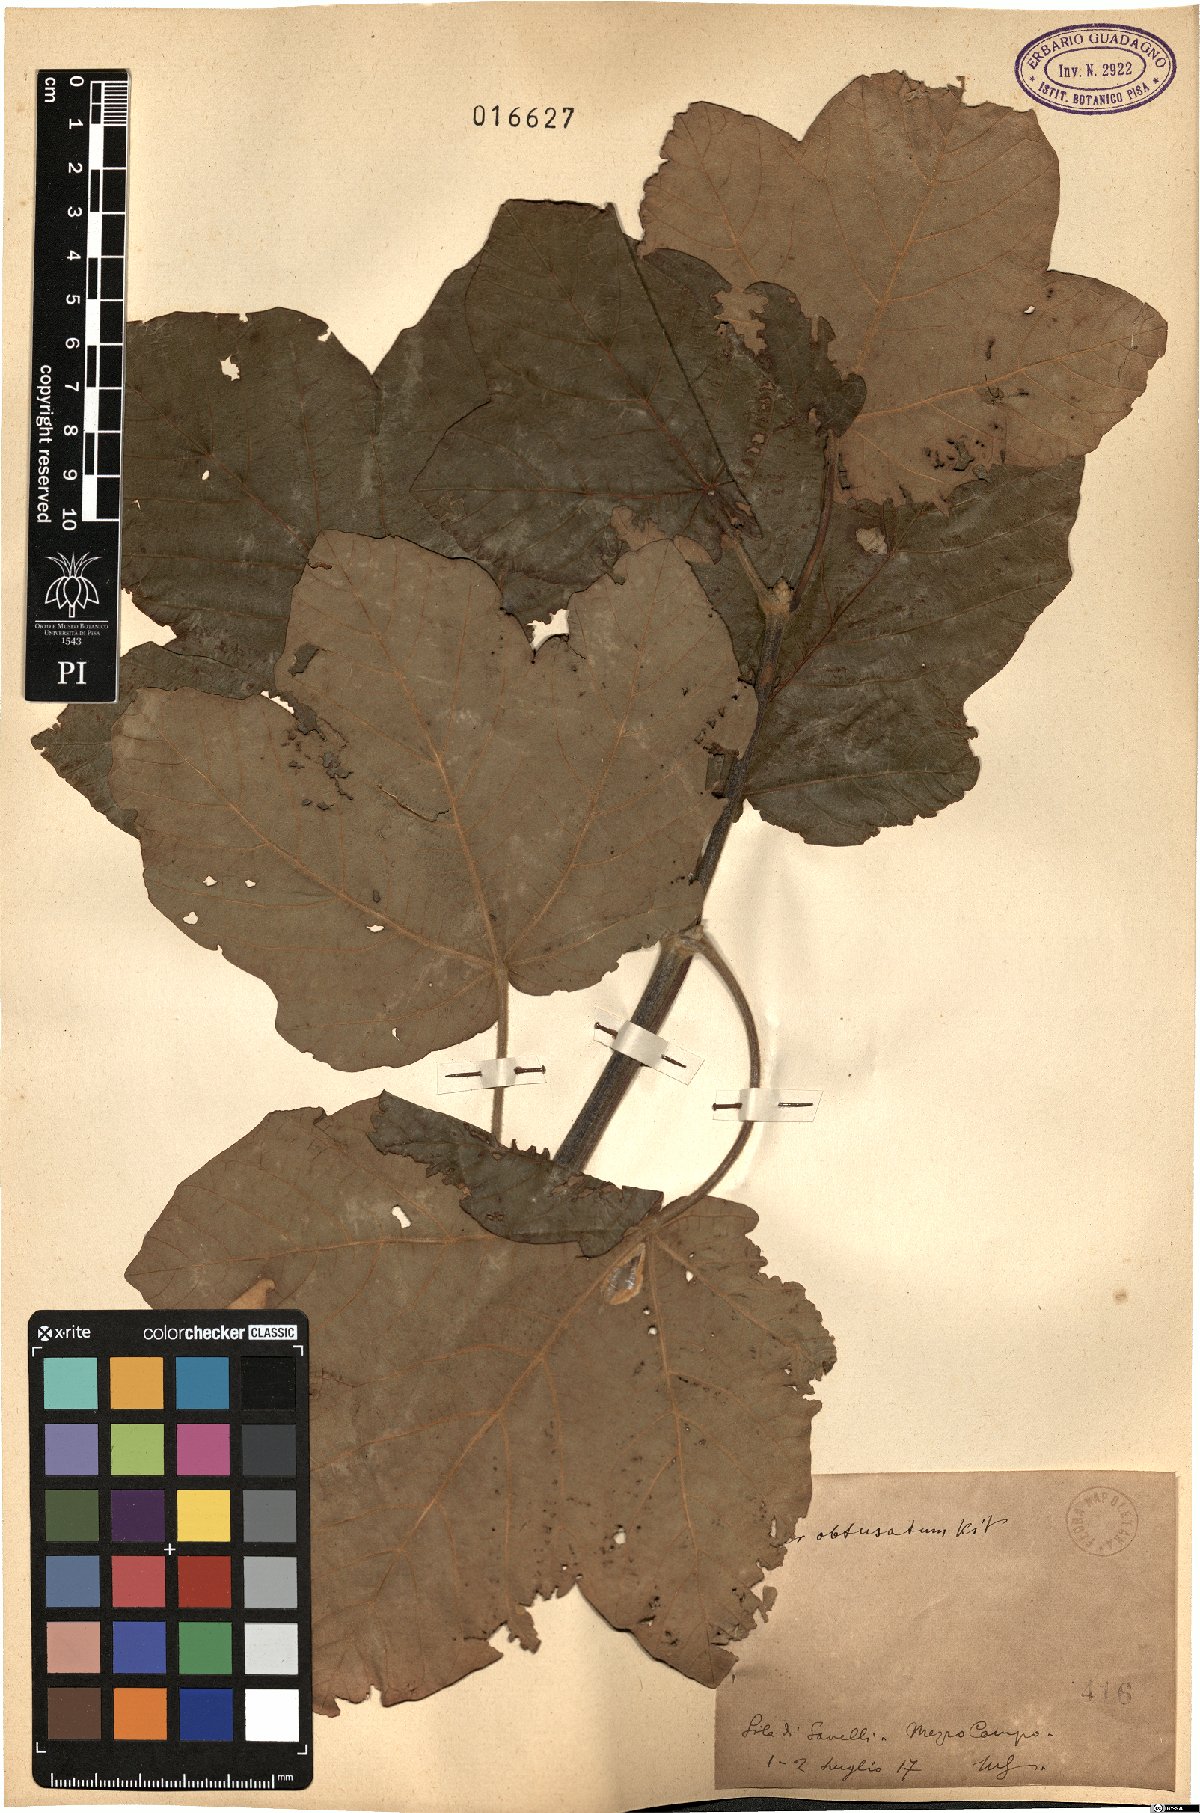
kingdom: Plantae
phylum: Tracheophyta
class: Magnoliopsida
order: Sapindales
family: Sapindaceae
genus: Acer
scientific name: Acer obtusatum
